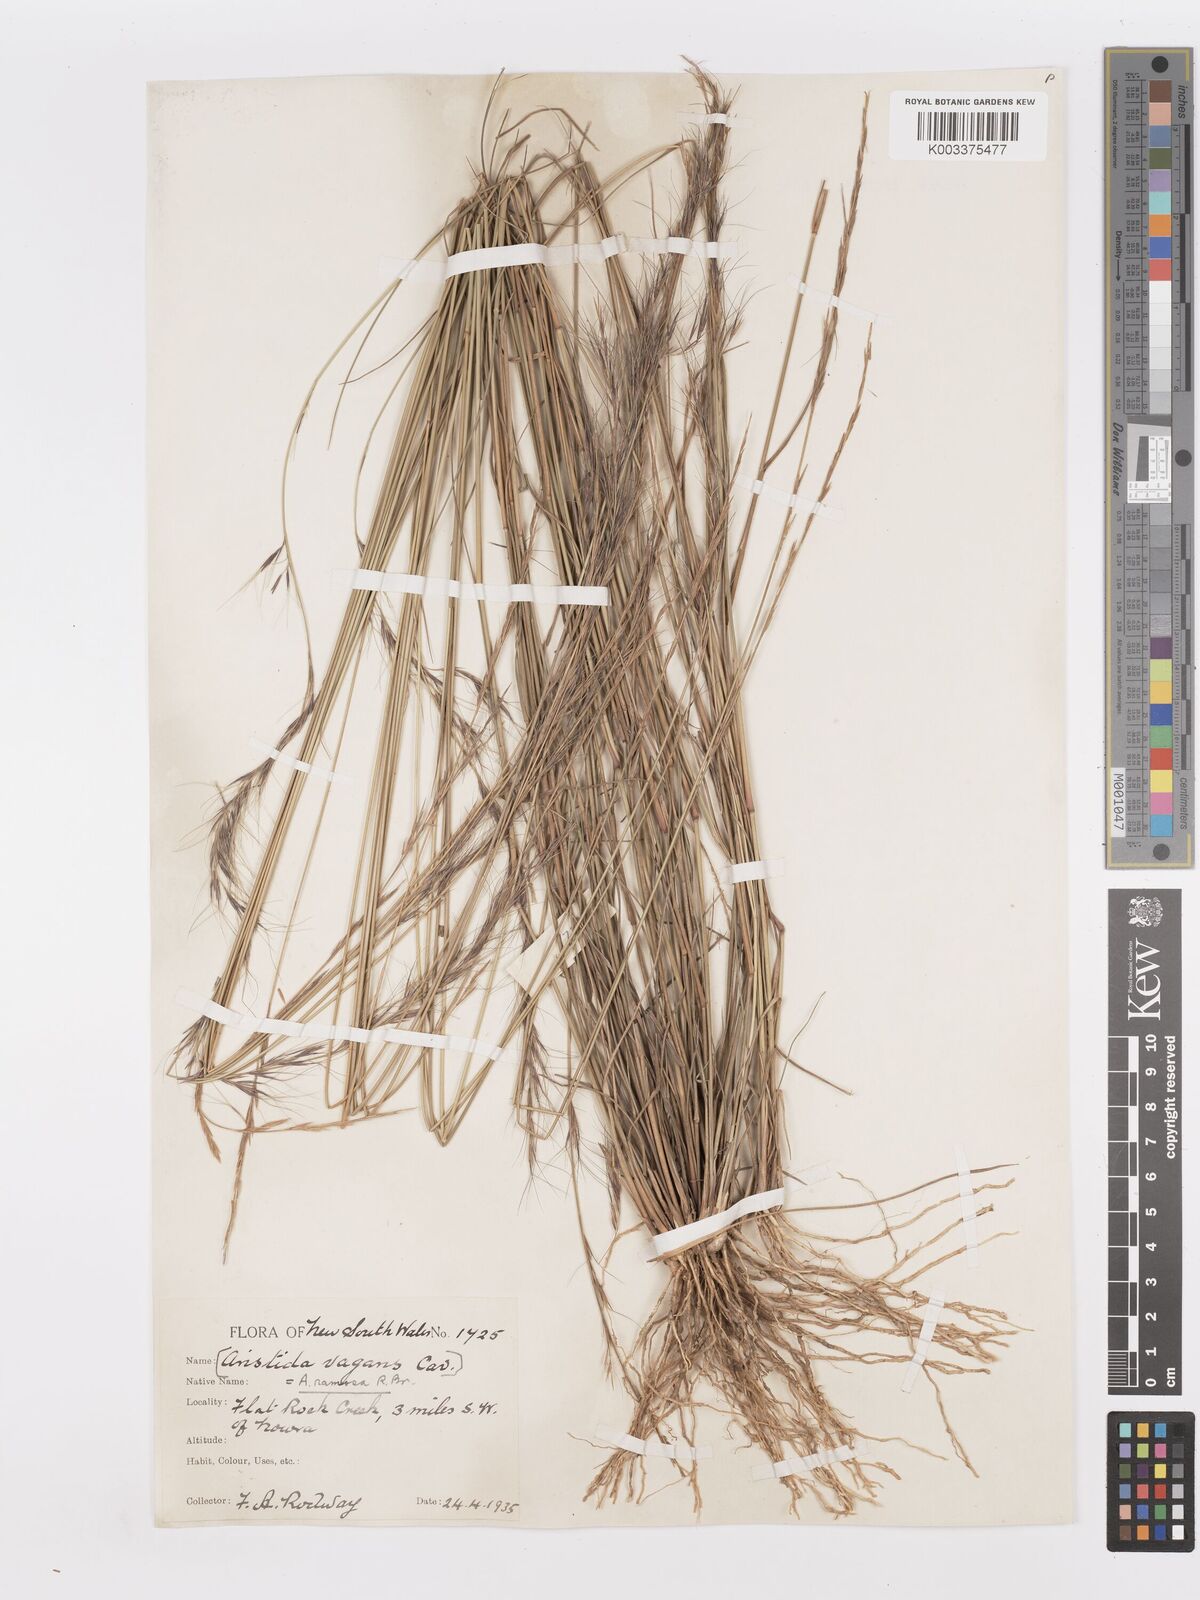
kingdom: Plantae
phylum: Tracheophyta
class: Liliopsida
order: Poales
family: Poaceae
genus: Aristida
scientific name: Aristida ramosa
